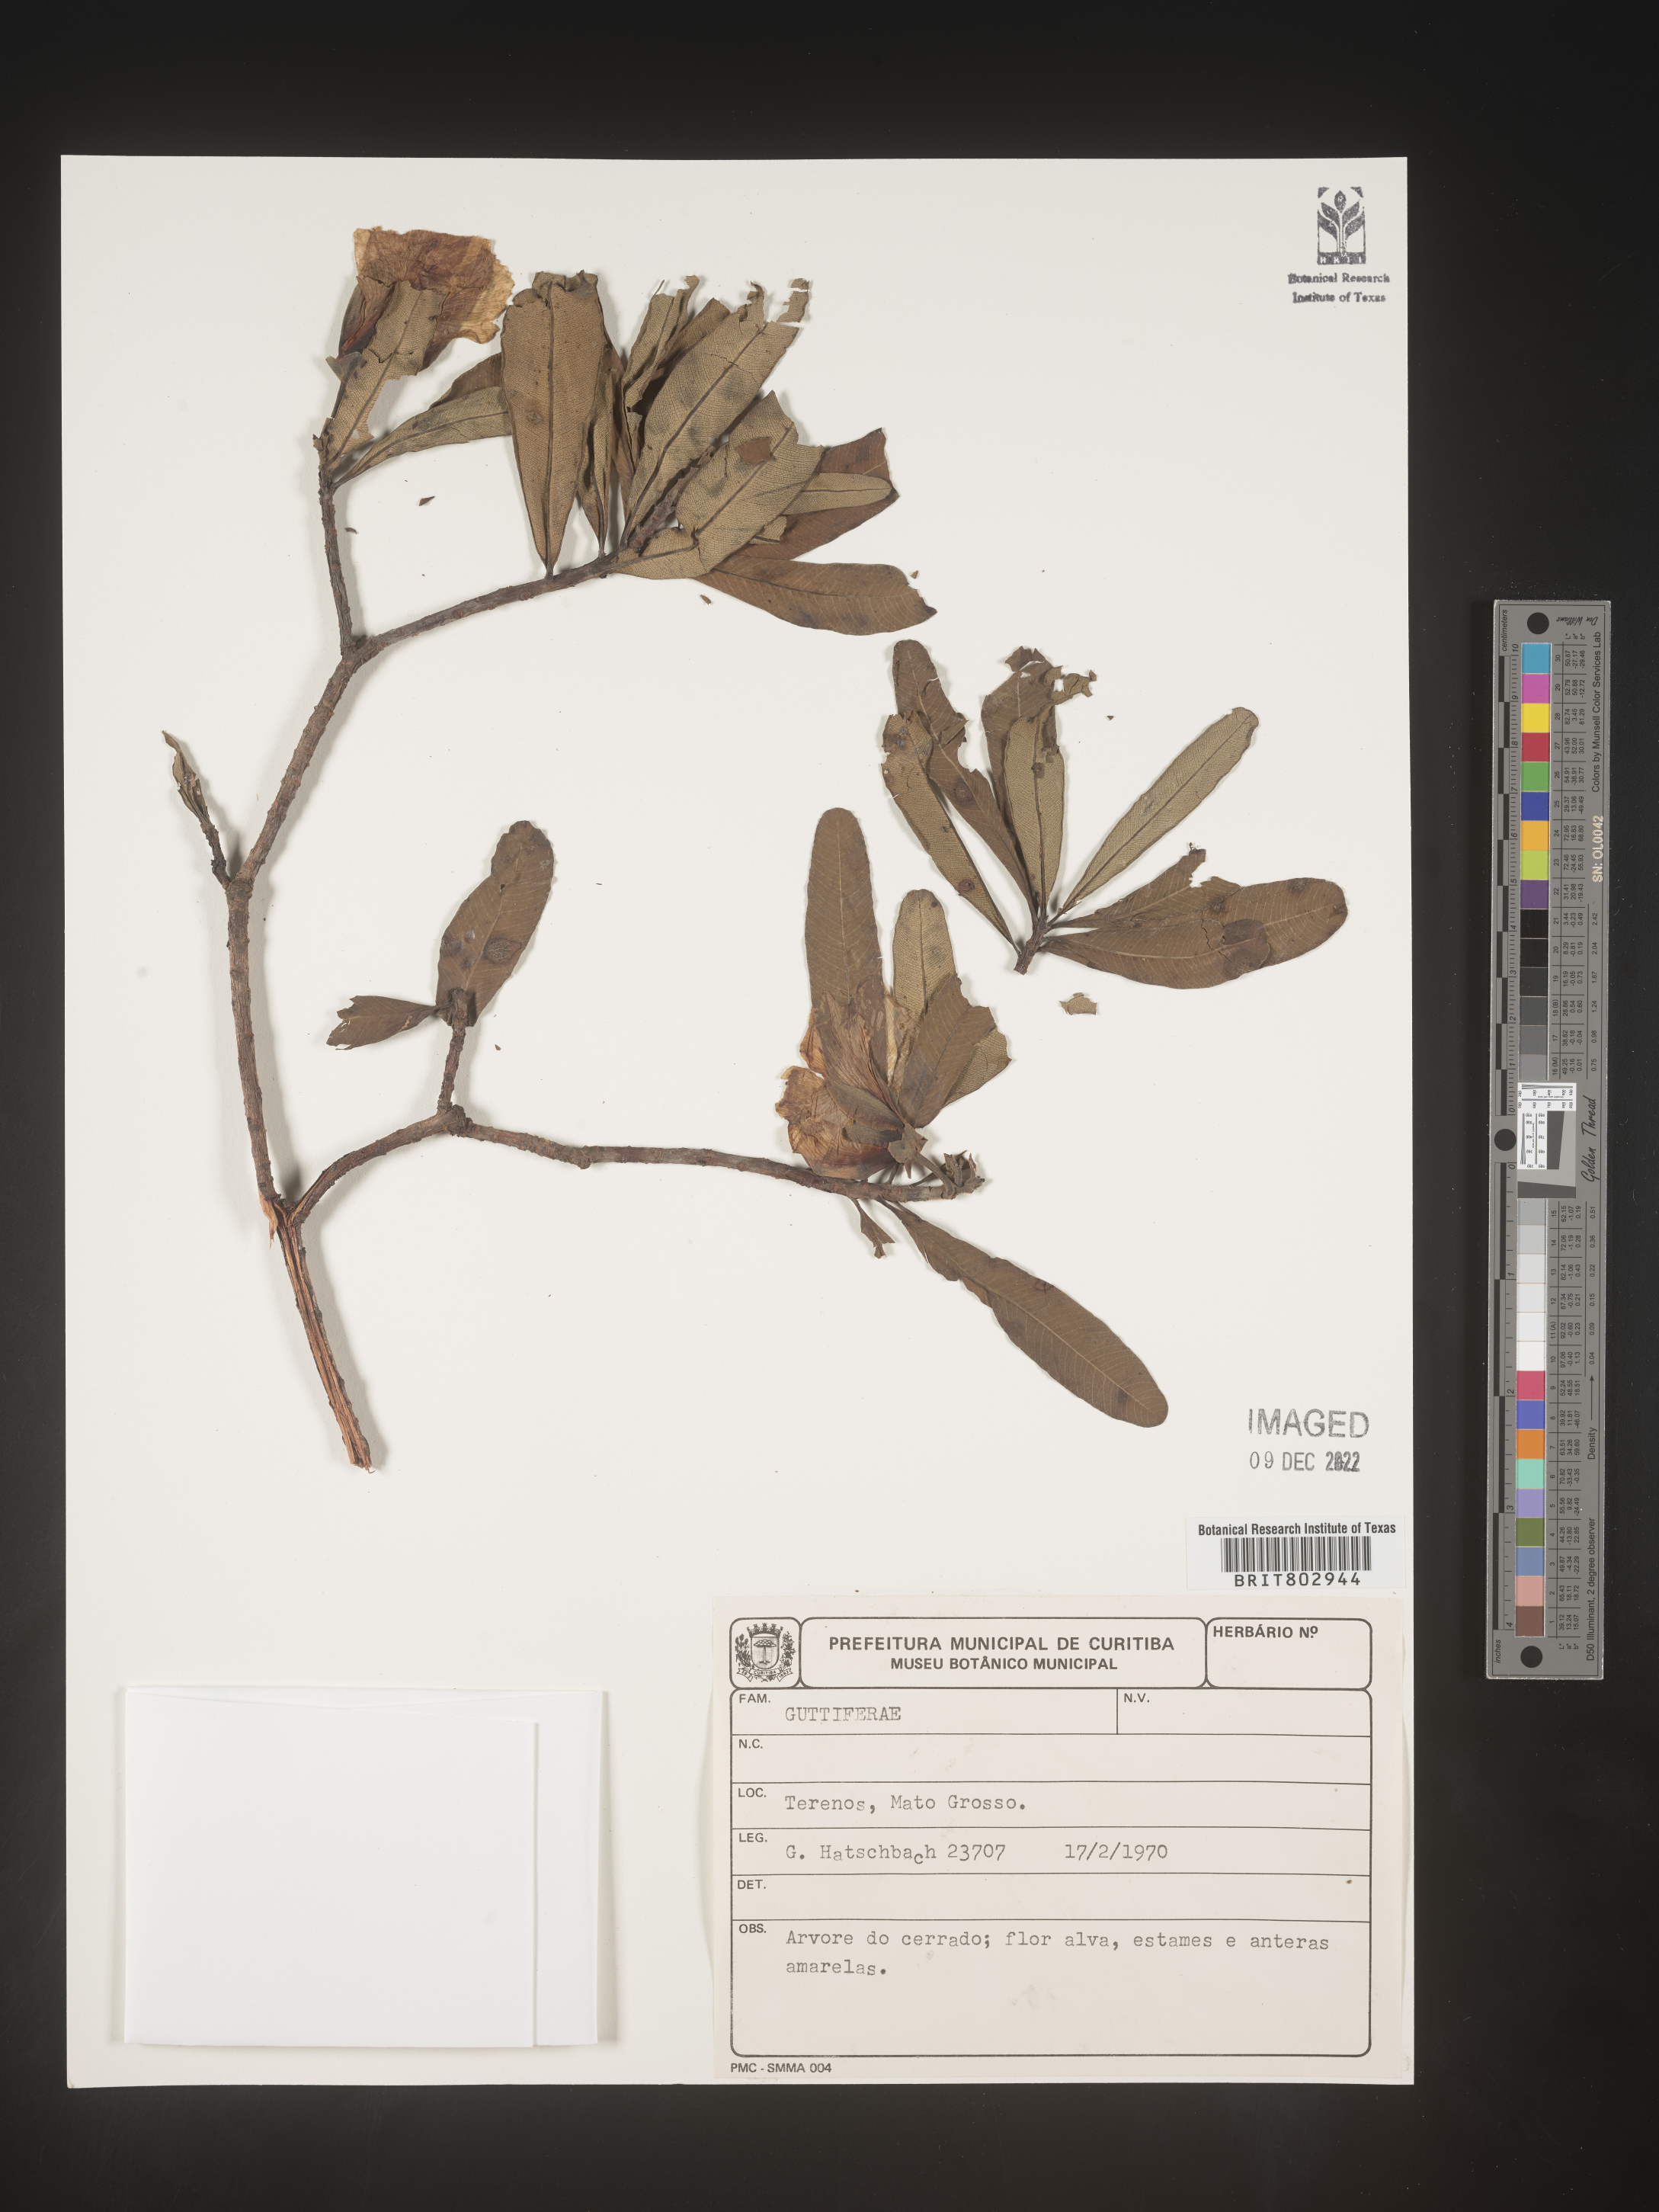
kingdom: Plantae
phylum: Tracheophyta
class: Magnoliopsida
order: Malpighiales
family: Calophyllaceae
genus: Kielmeyera
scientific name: Kielmeyera
